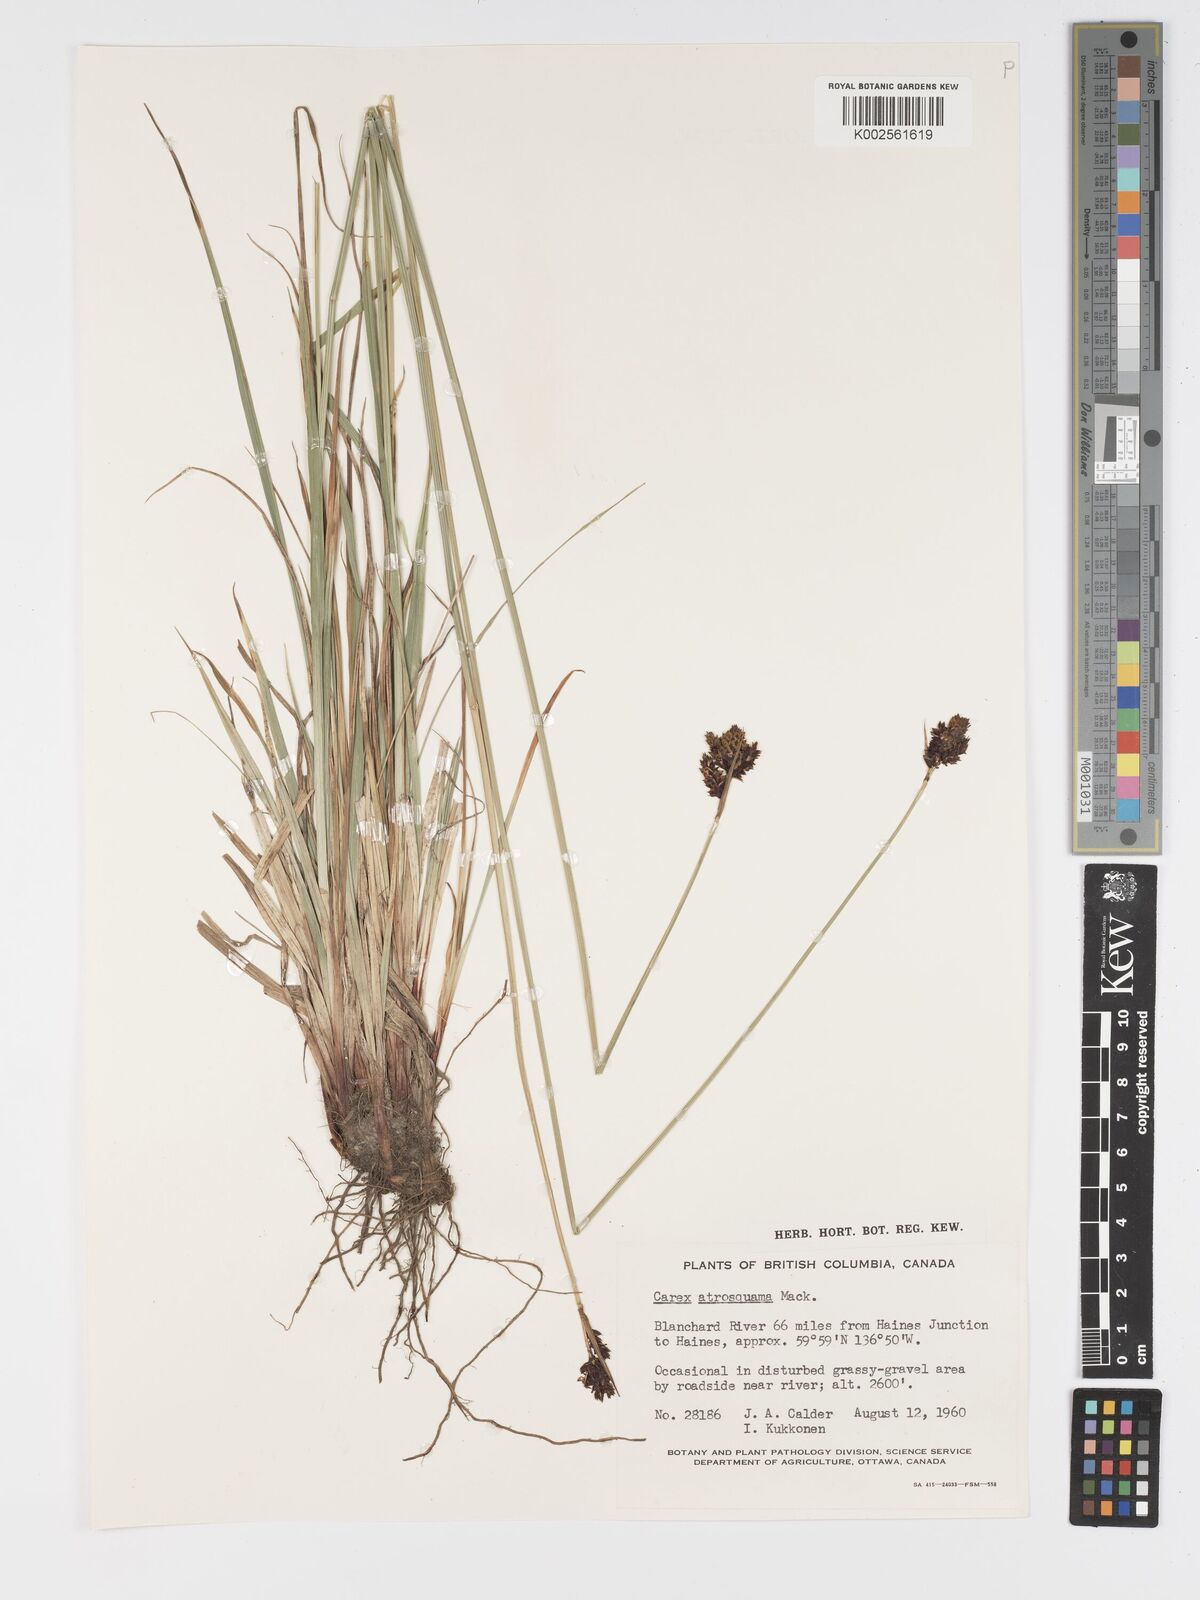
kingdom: Plantae
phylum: Tracheophyta
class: Liliopsida
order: Poales
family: Cyperaceae
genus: Carex
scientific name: Carex atrosquama
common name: Black-scale sedge
